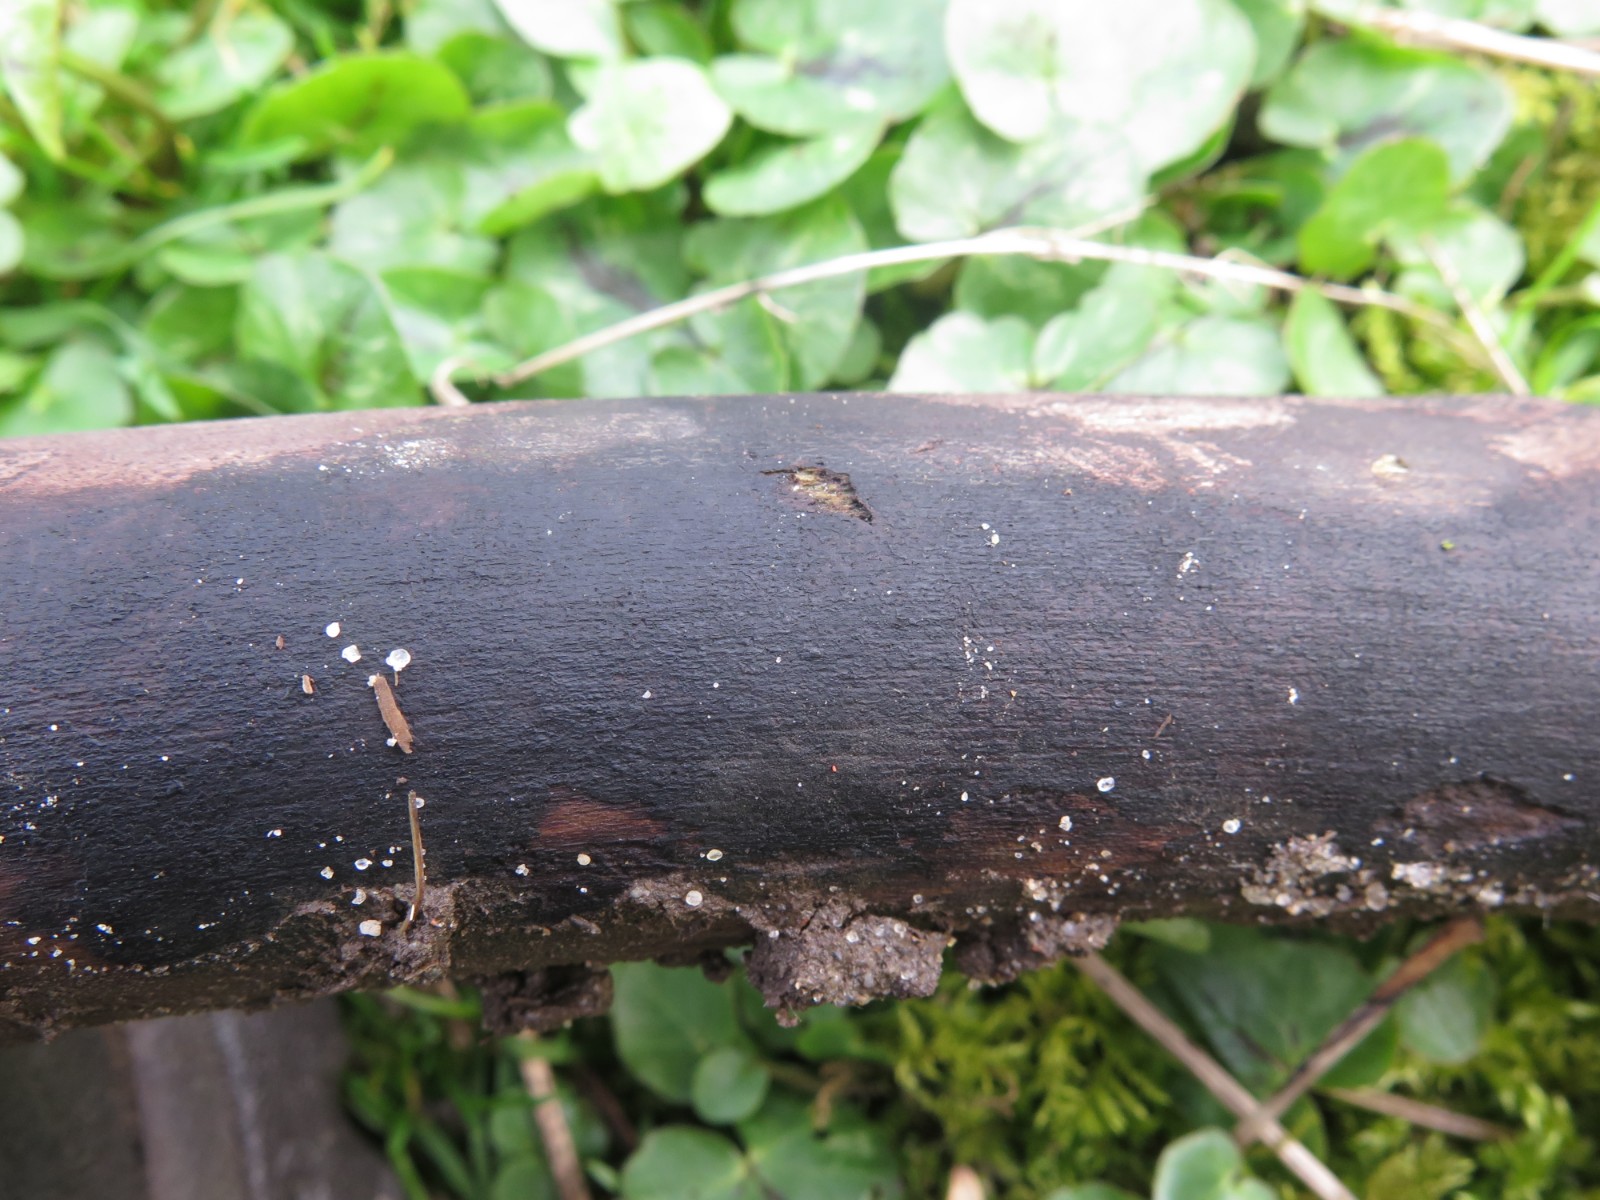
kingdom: Fungi
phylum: Ascomycota
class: Sordariomycetes
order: Xylariales
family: Diatrypaceae
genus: Eutypa
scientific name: Eutypa maura
